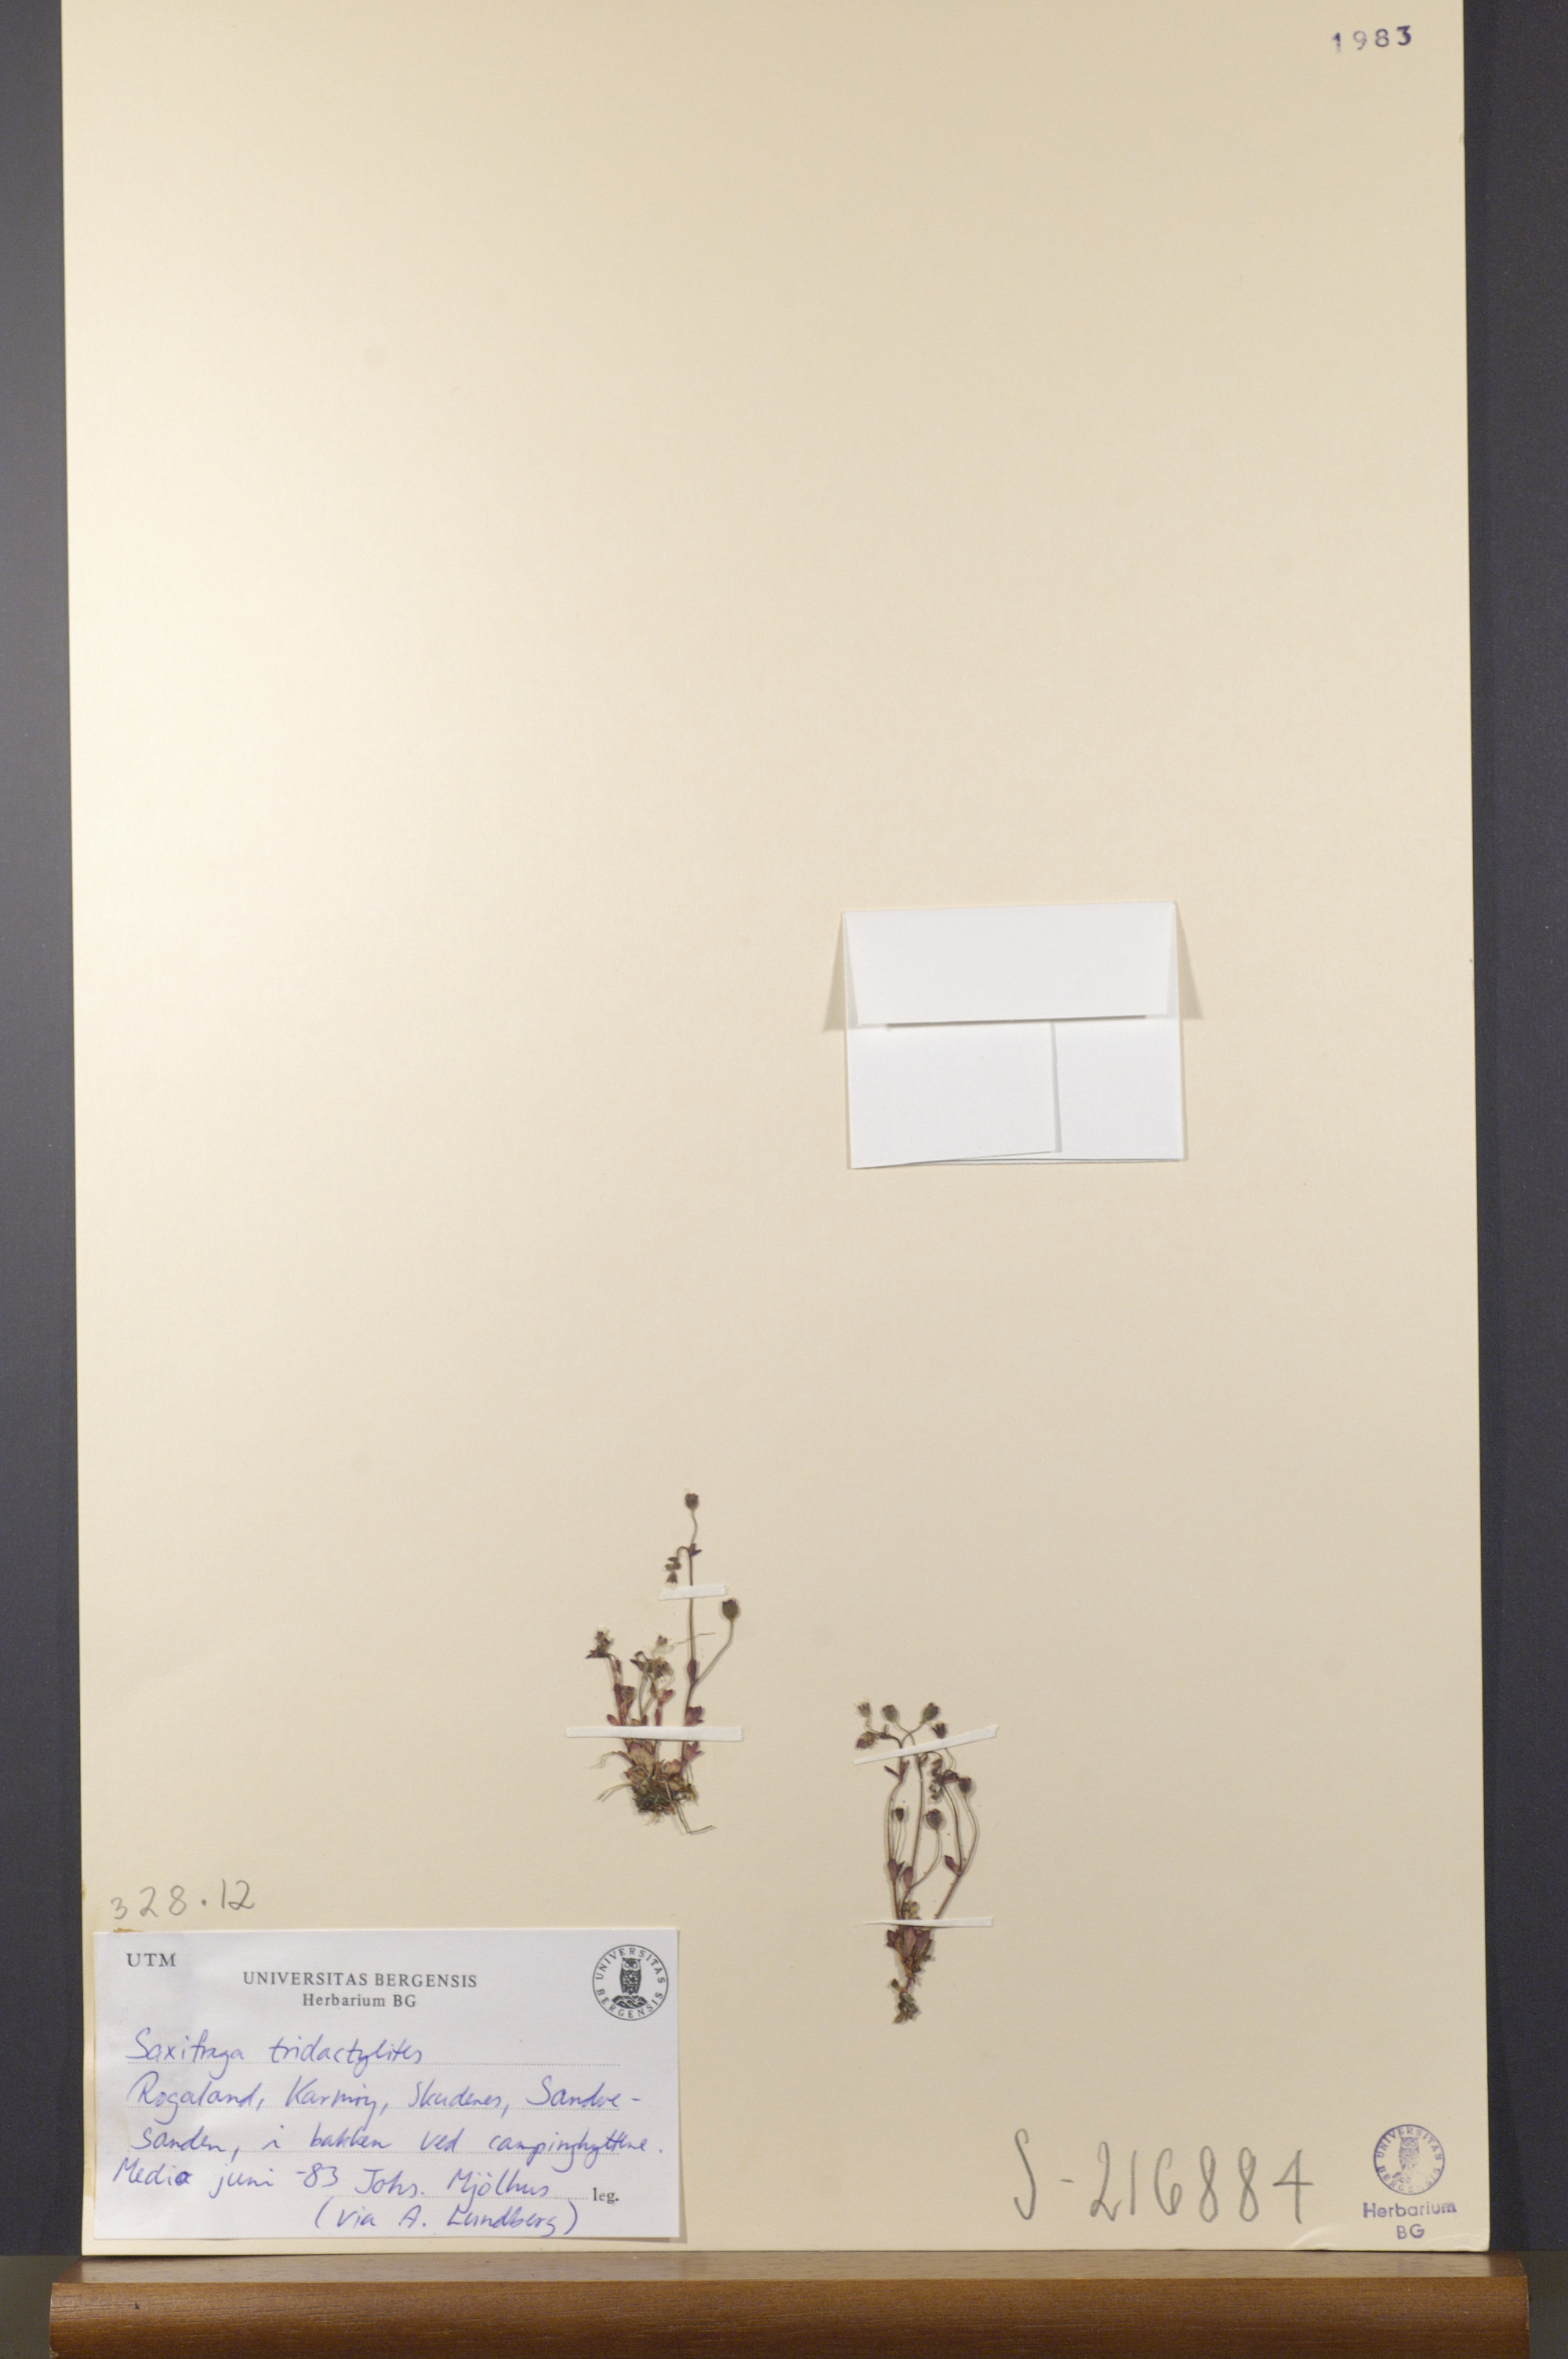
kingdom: Plantae
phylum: Tracheophyta
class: Magnoliopsida
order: Saxifragales
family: Saxifragaceae
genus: Saxifraga
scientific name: Saxifraga tridactylites
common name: Rue-leaved saxifrage
